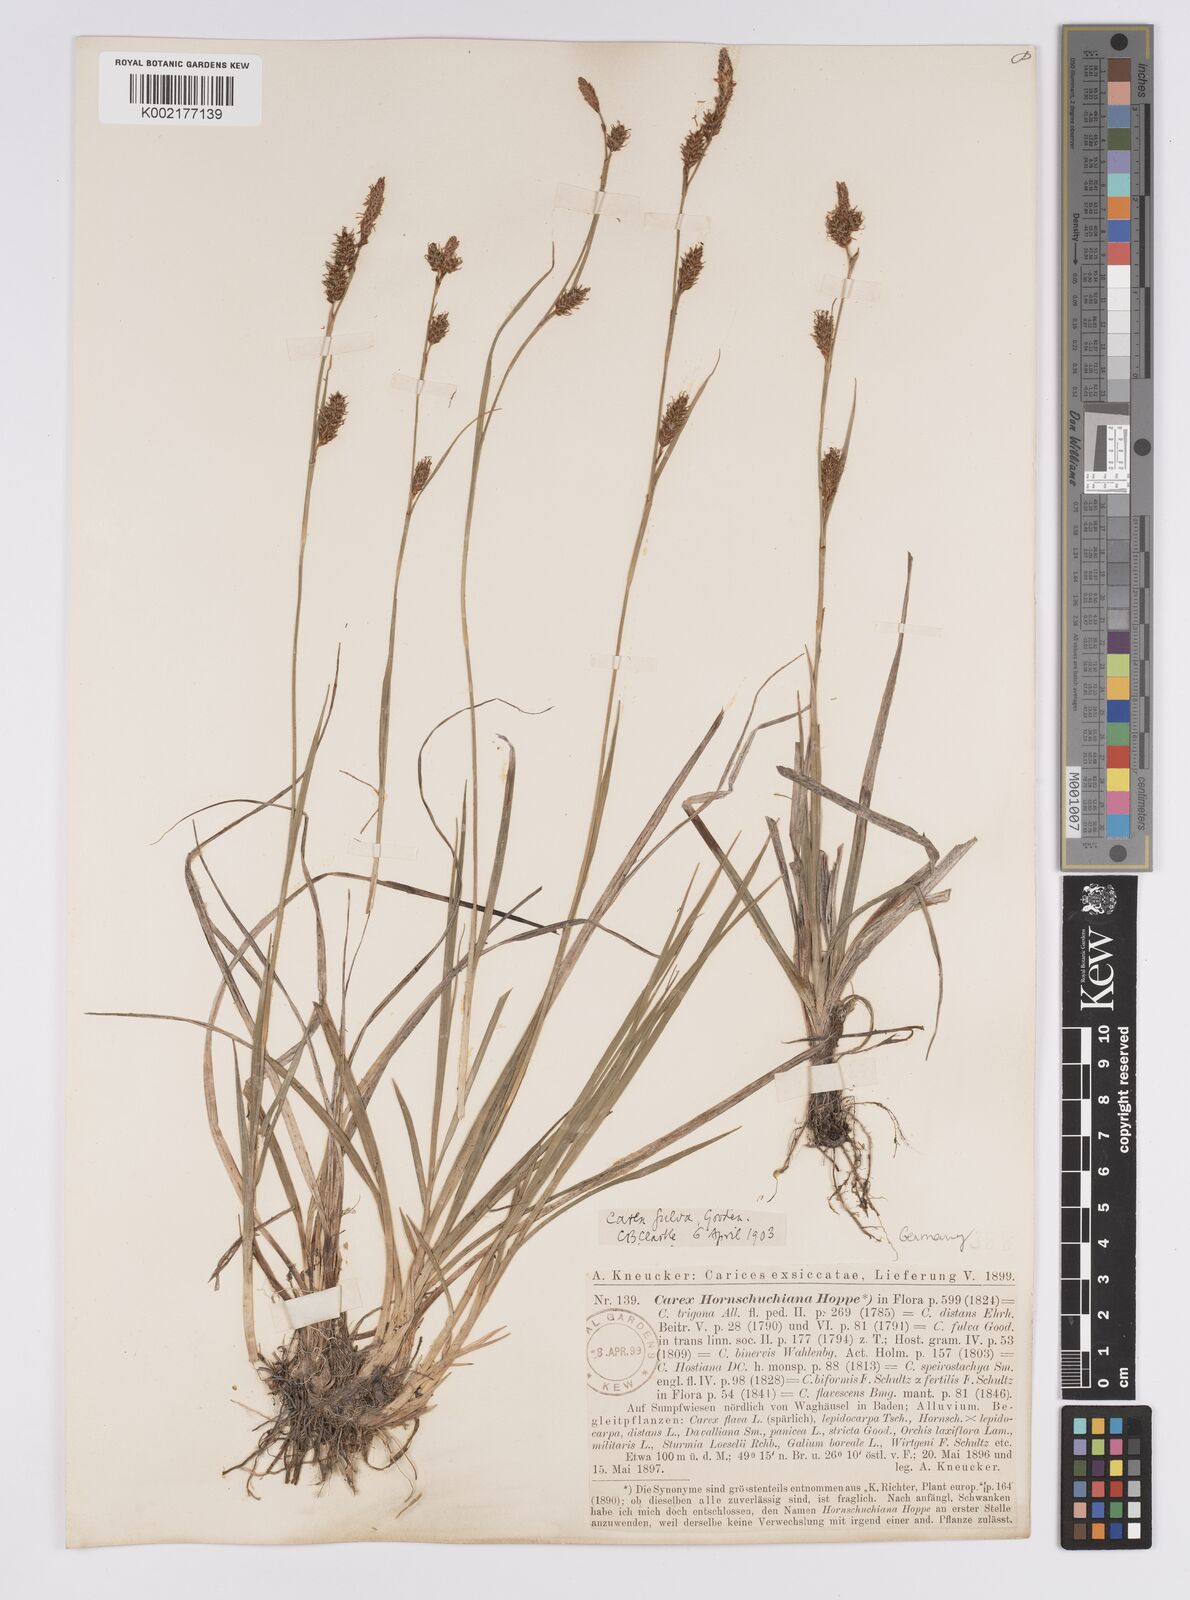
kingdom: Plantae
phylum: Tracheophyta
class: Liliopsida
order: Poales
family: Cyperaceae
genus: Carex
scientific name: Carex hostiana
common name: Tawny sedge
